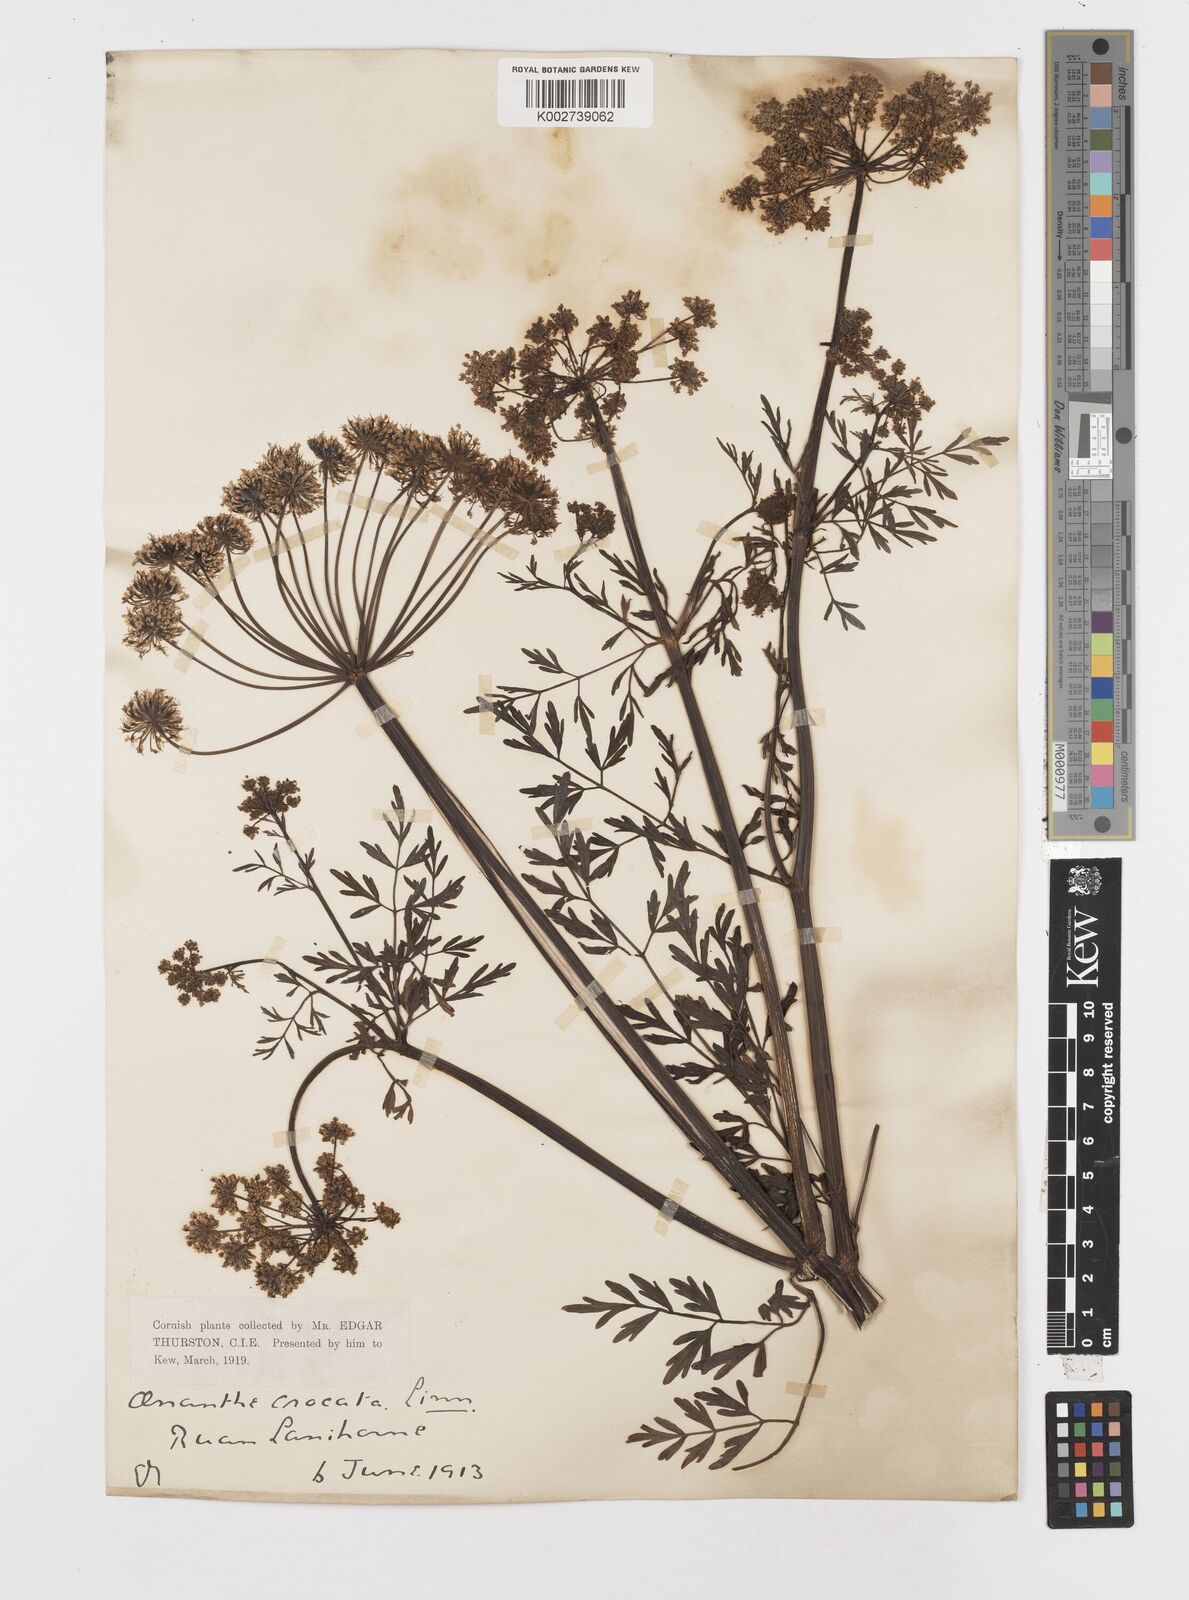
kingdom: Plantae
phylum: Tracheophyta
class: Magnoliopsida
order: Apiales
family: Apiaceae
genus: Oenanthe
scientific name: Oenanthe crocata
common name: Hemlock water-dropwort
